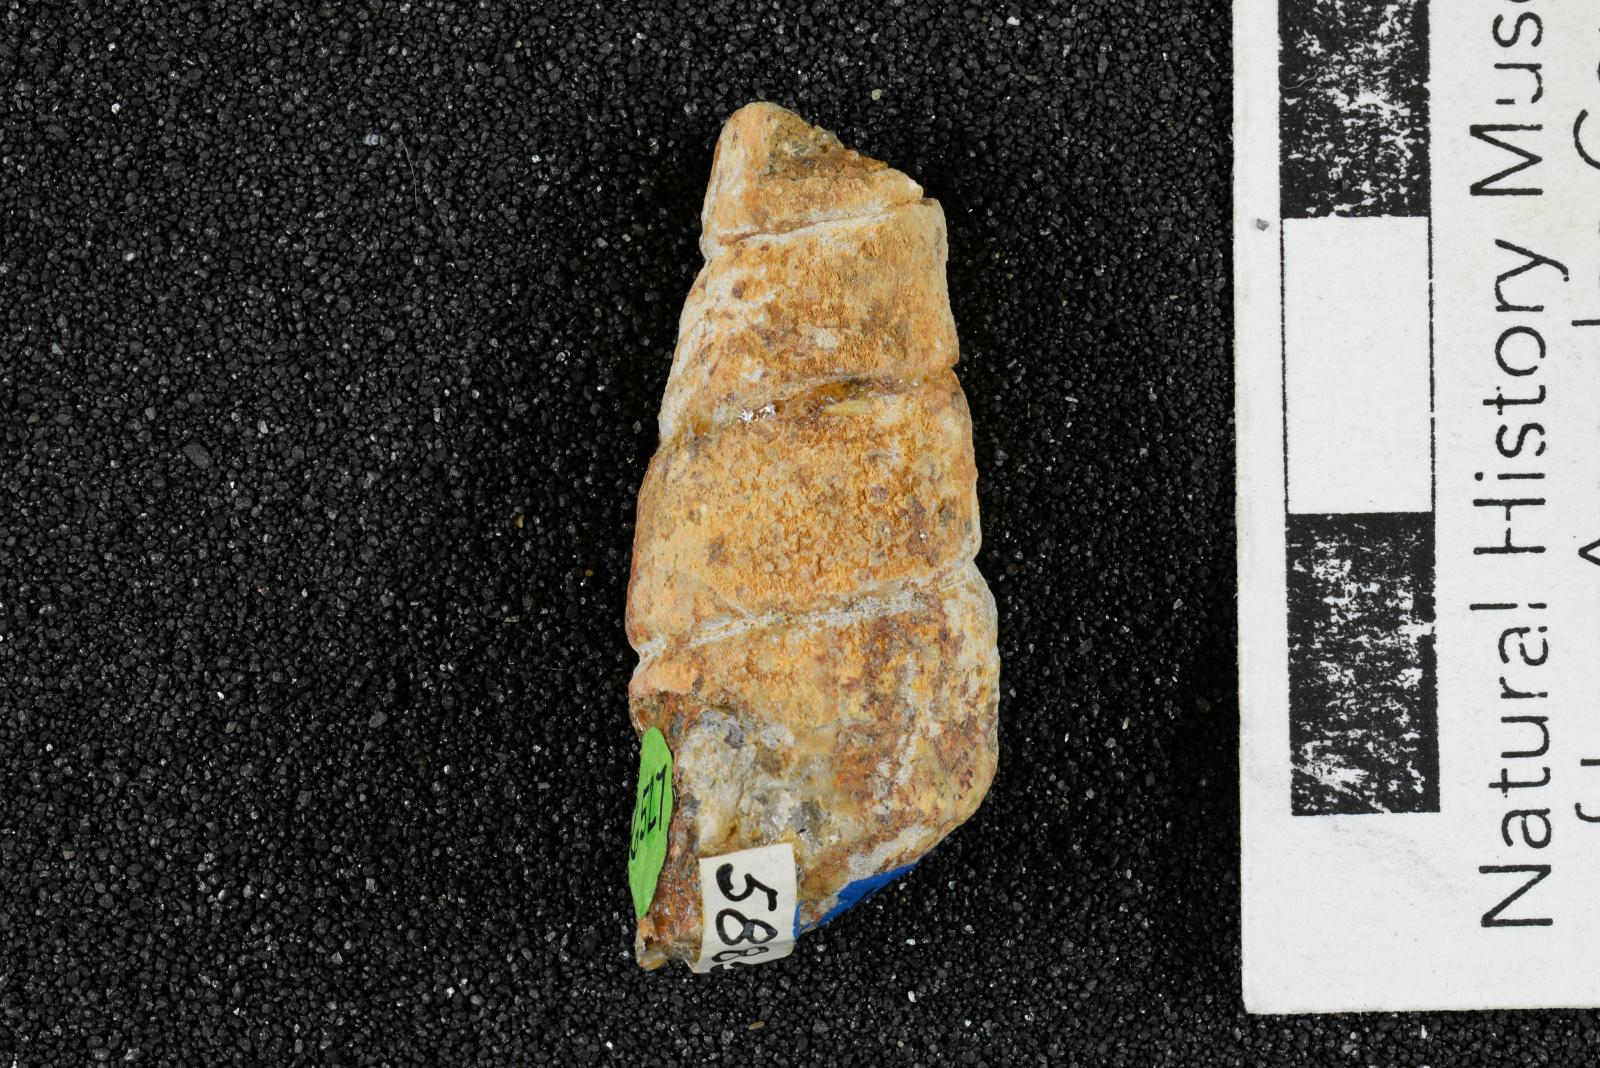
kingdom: Animalia
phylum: Mollusca
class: Gastropoda
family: Turritellidae
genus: Turritella
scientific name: Turritella peninsularis
